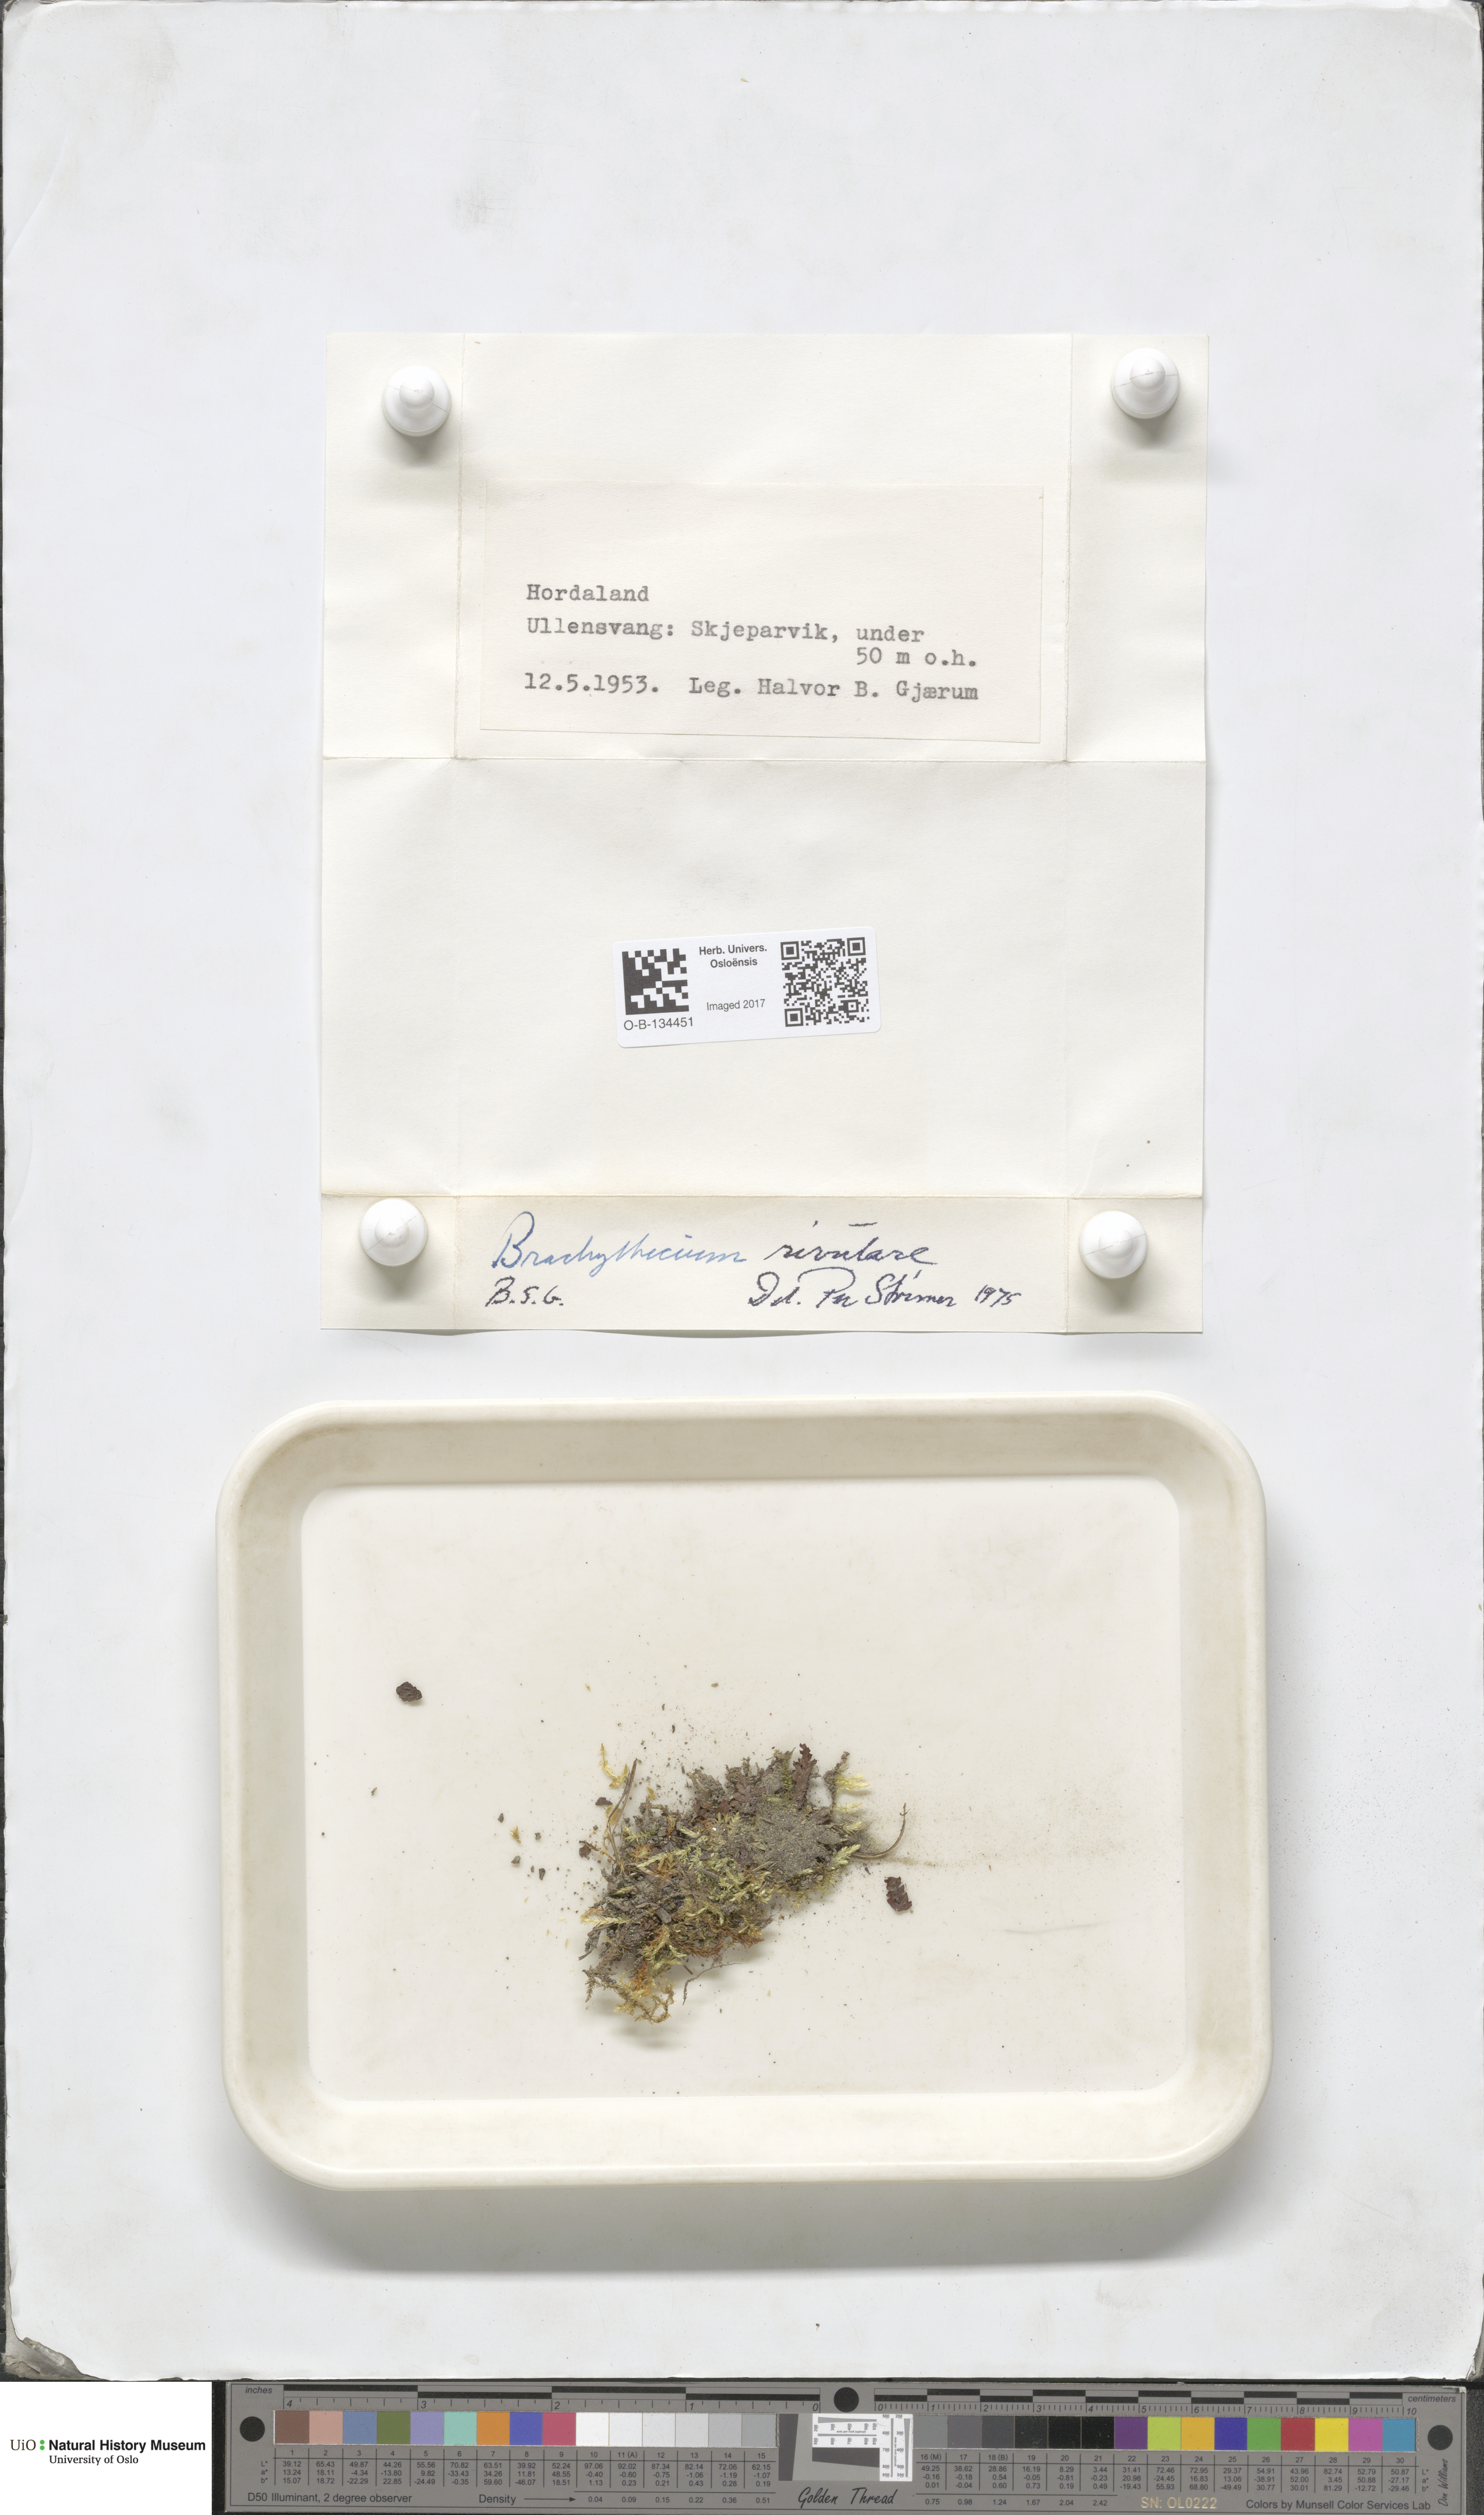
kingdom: Plantae
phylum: Bryophyta
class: Bryopsida
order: Hypnales
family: Brachytheciaceae
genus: Brachythecium
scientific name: Brachythecium rivulare
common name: River ragged moss
